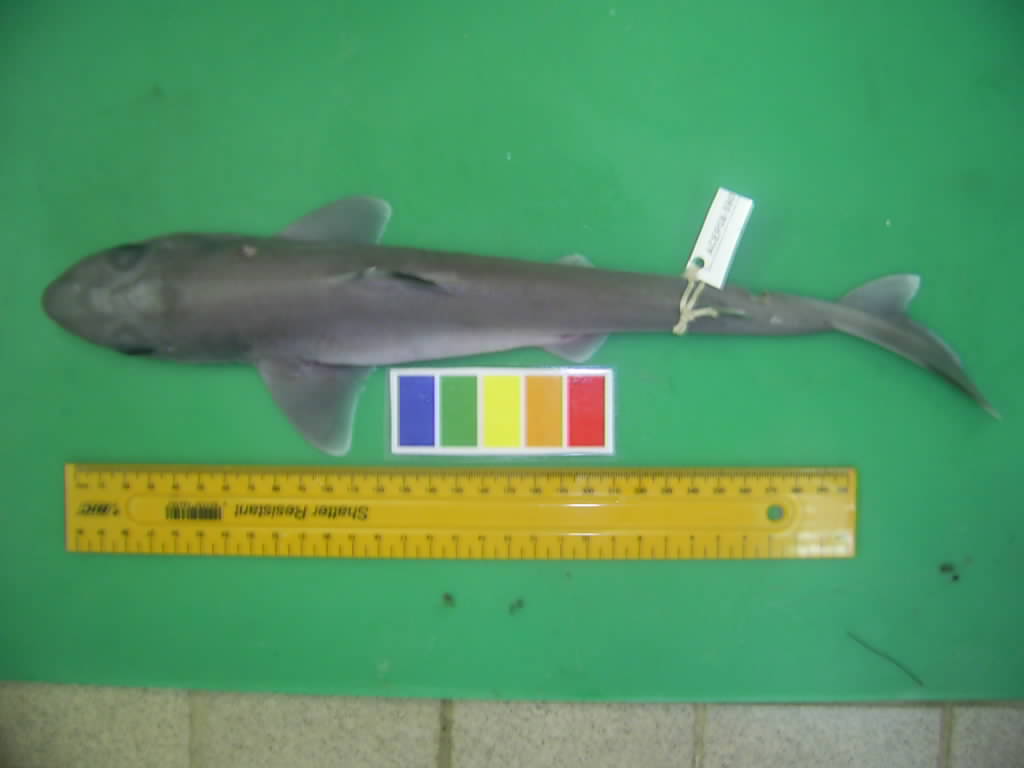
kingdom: Animalia
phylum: Chordata
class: Elasmobranchii
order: Squaliformes
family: Squalidae
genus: Squalus
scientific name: Squalus
